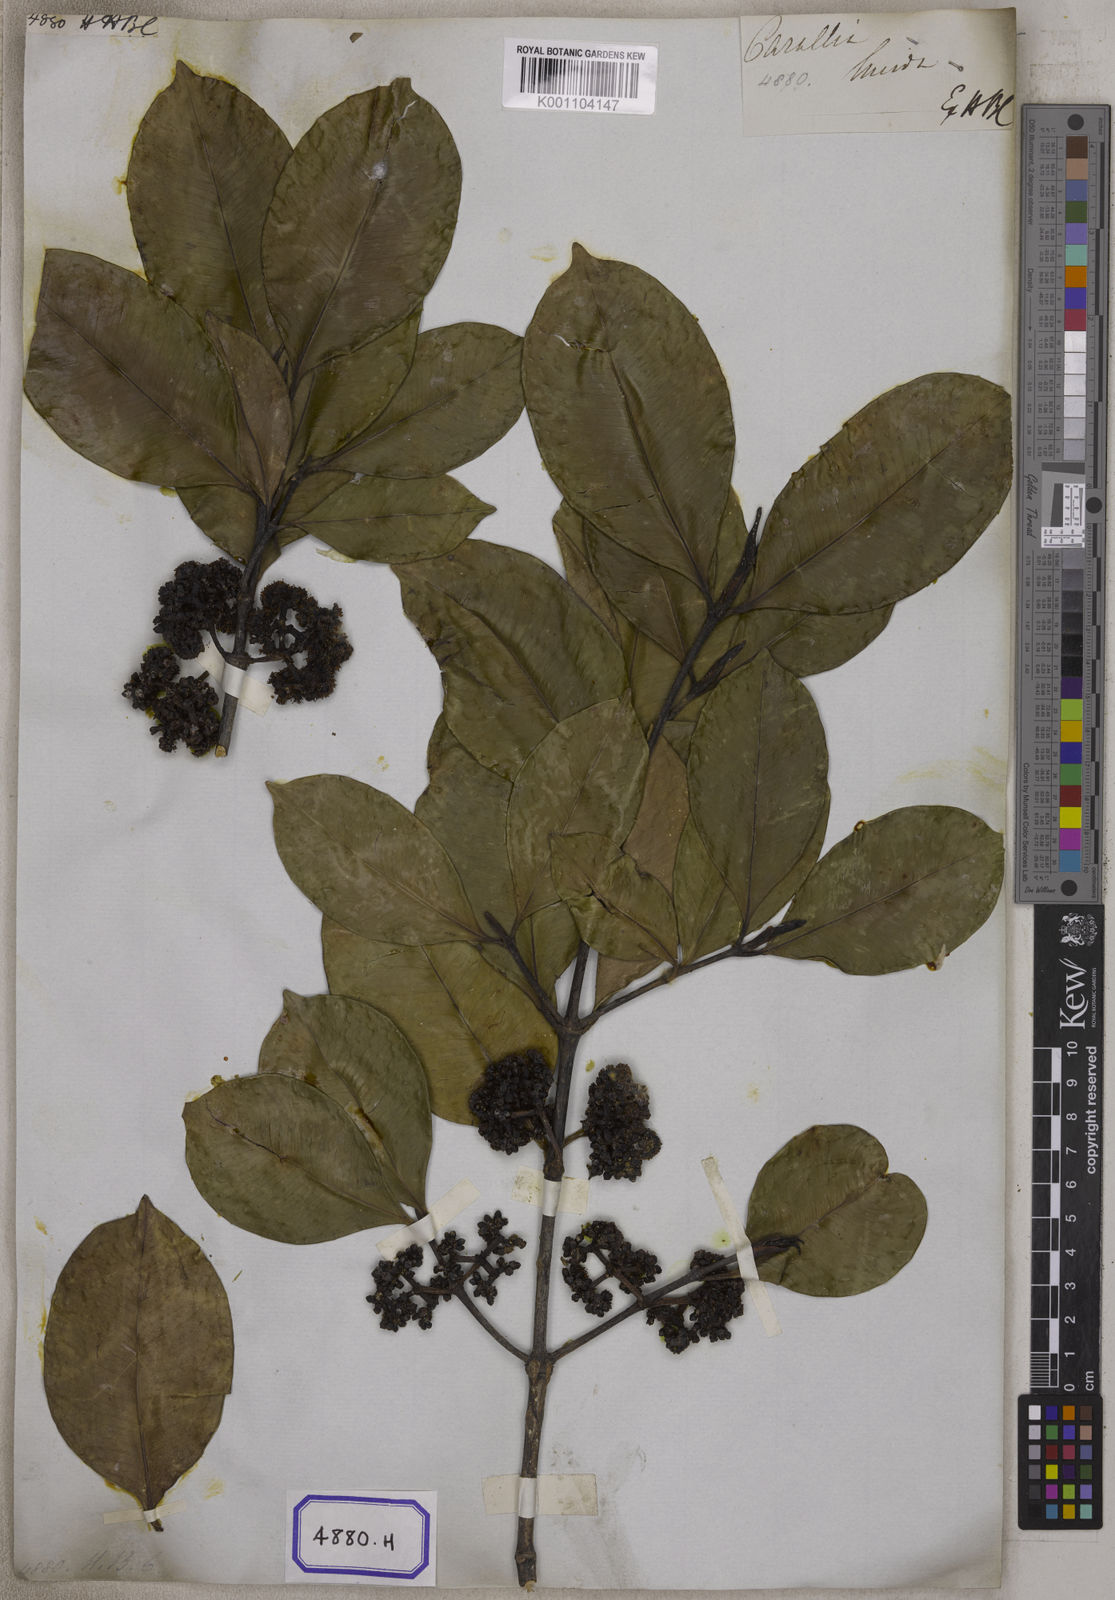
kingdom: Plantae
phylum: Tracheophyta
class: Magnoliopsida
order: Malpighiales
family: Rhizophoraceae
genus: Carallia
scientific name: Carallia brachiata
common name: Carallawood
